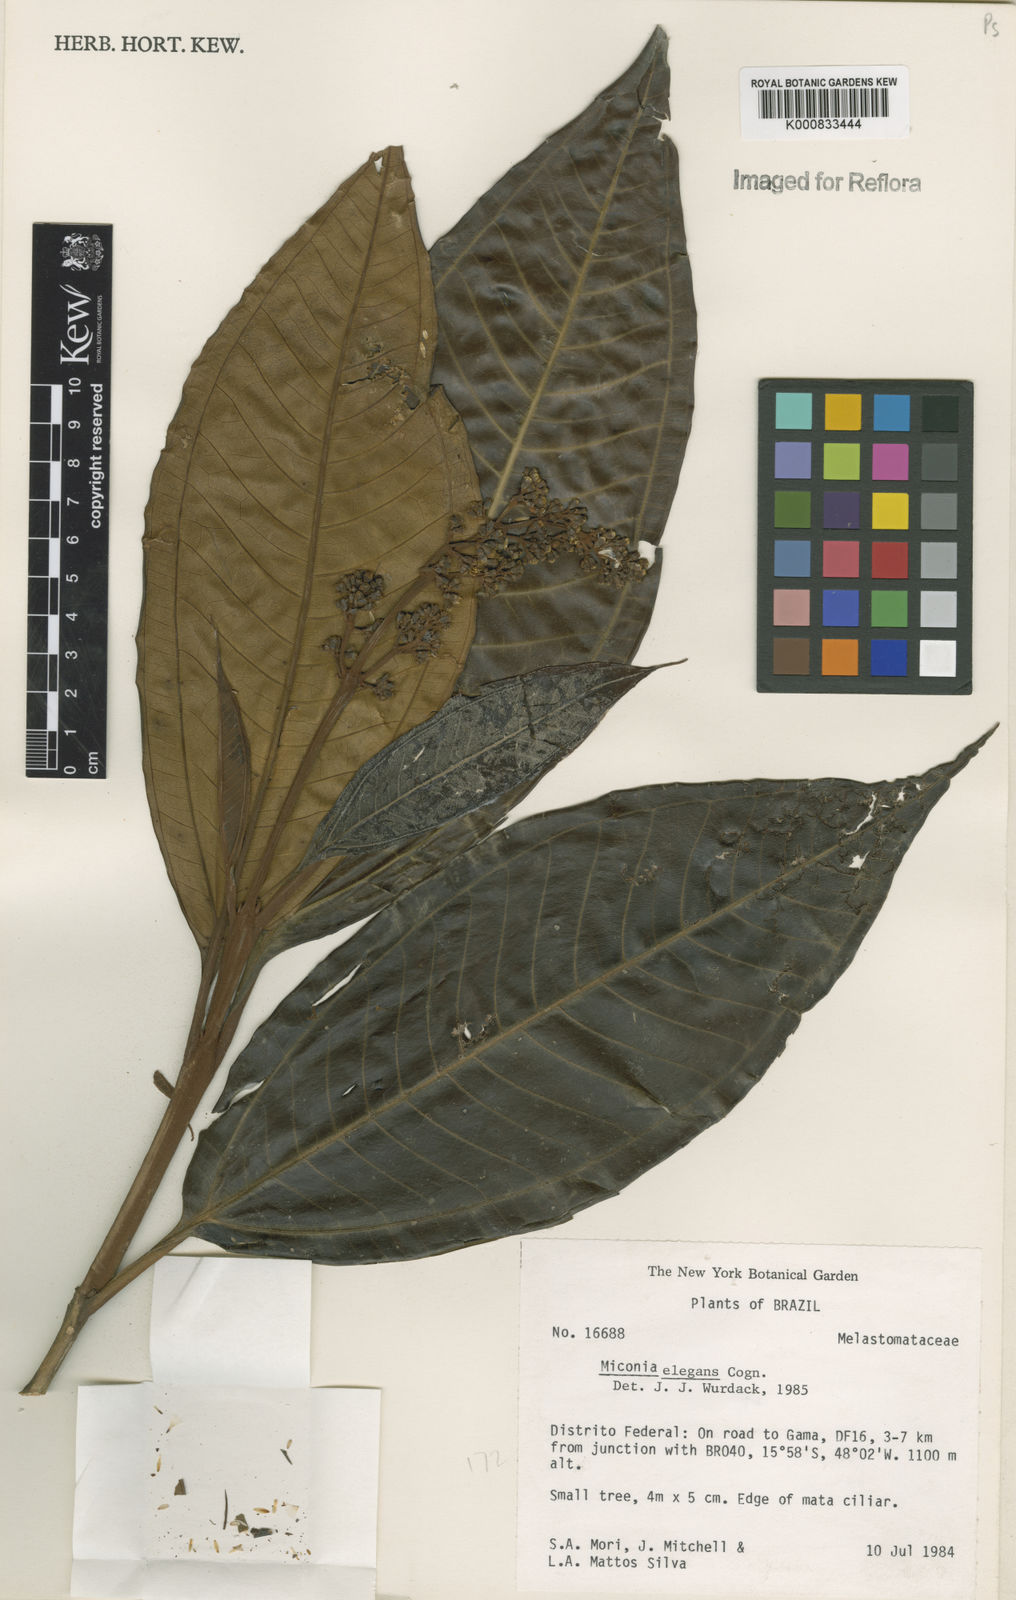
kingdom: Plantae
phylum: Tracheophyta
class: Magnoliopsida
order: Myrtales
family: Melastomataceae
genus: Miconia
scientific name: Miconia elegans
